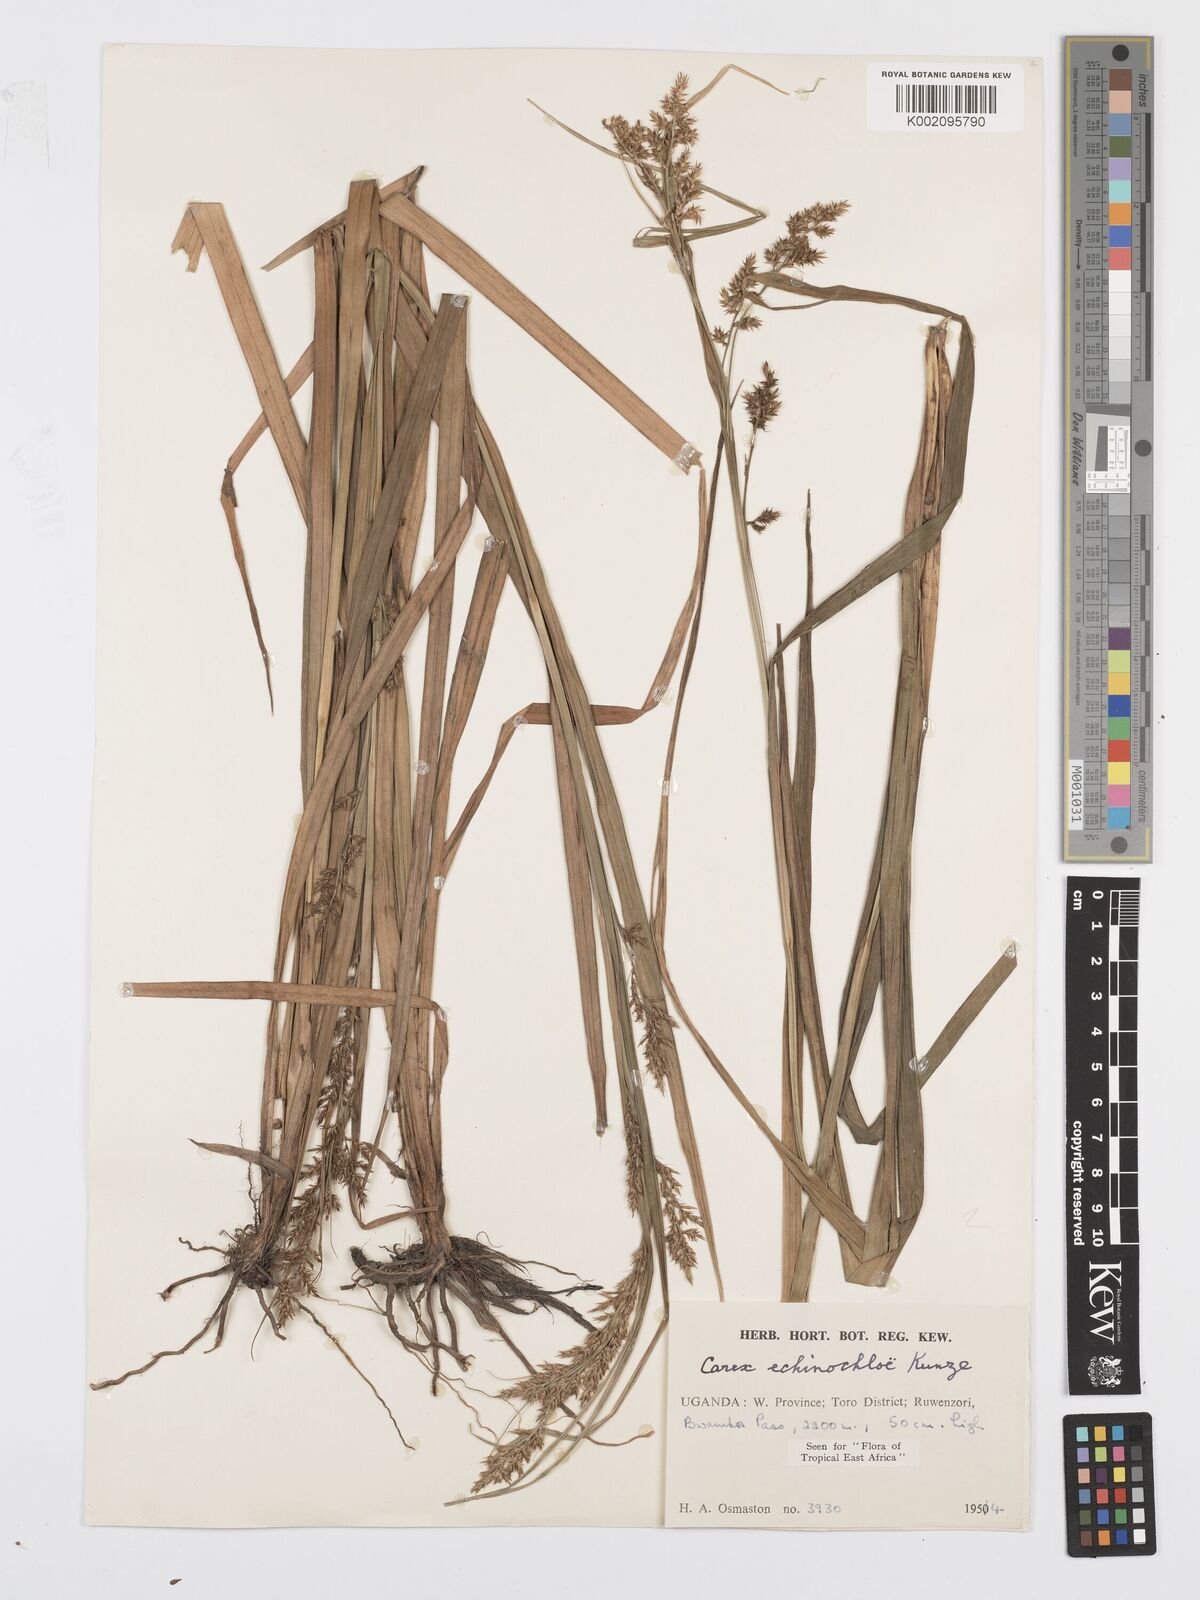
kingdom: Plantae
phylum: Tracheophyta
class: Liliopsida
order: Poales
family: Cyperaceae
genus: Carex
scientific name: Carex echinochloe
